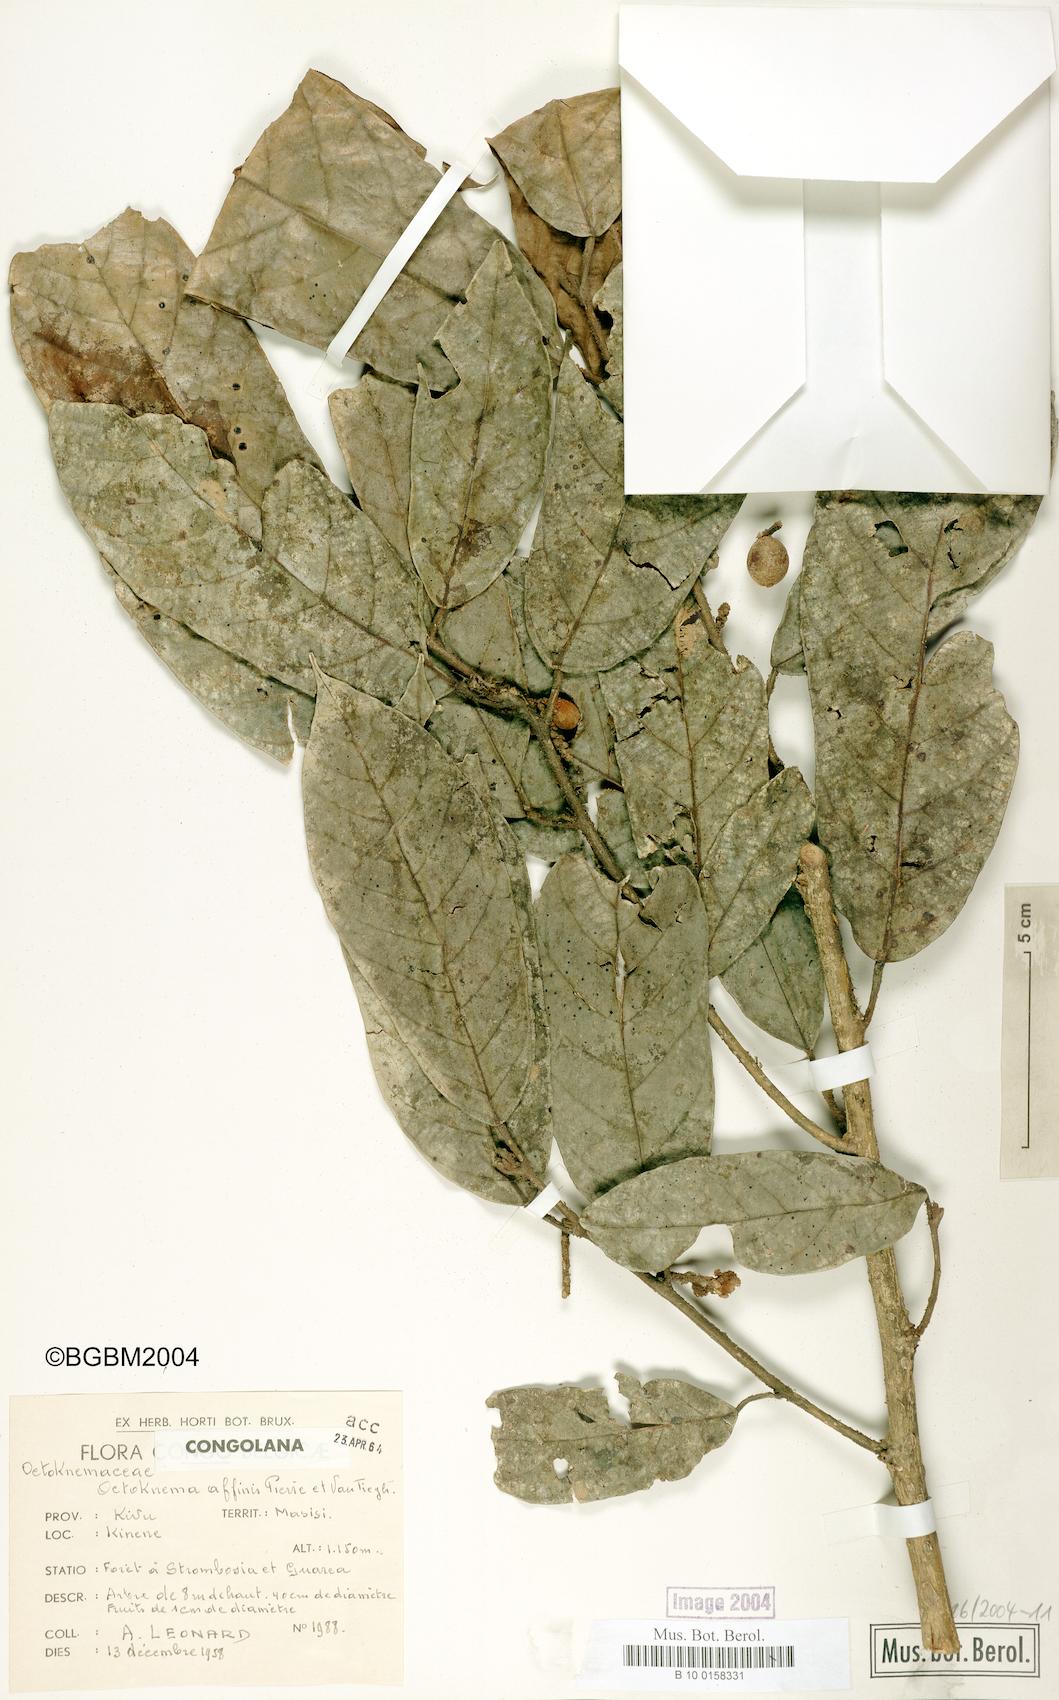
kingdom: Plantae
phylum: Tracheophyta
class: Magnoliopsida
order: Santalales
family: Octoknemaceae
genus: Octoknema
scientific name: Octoknema kivuensis
